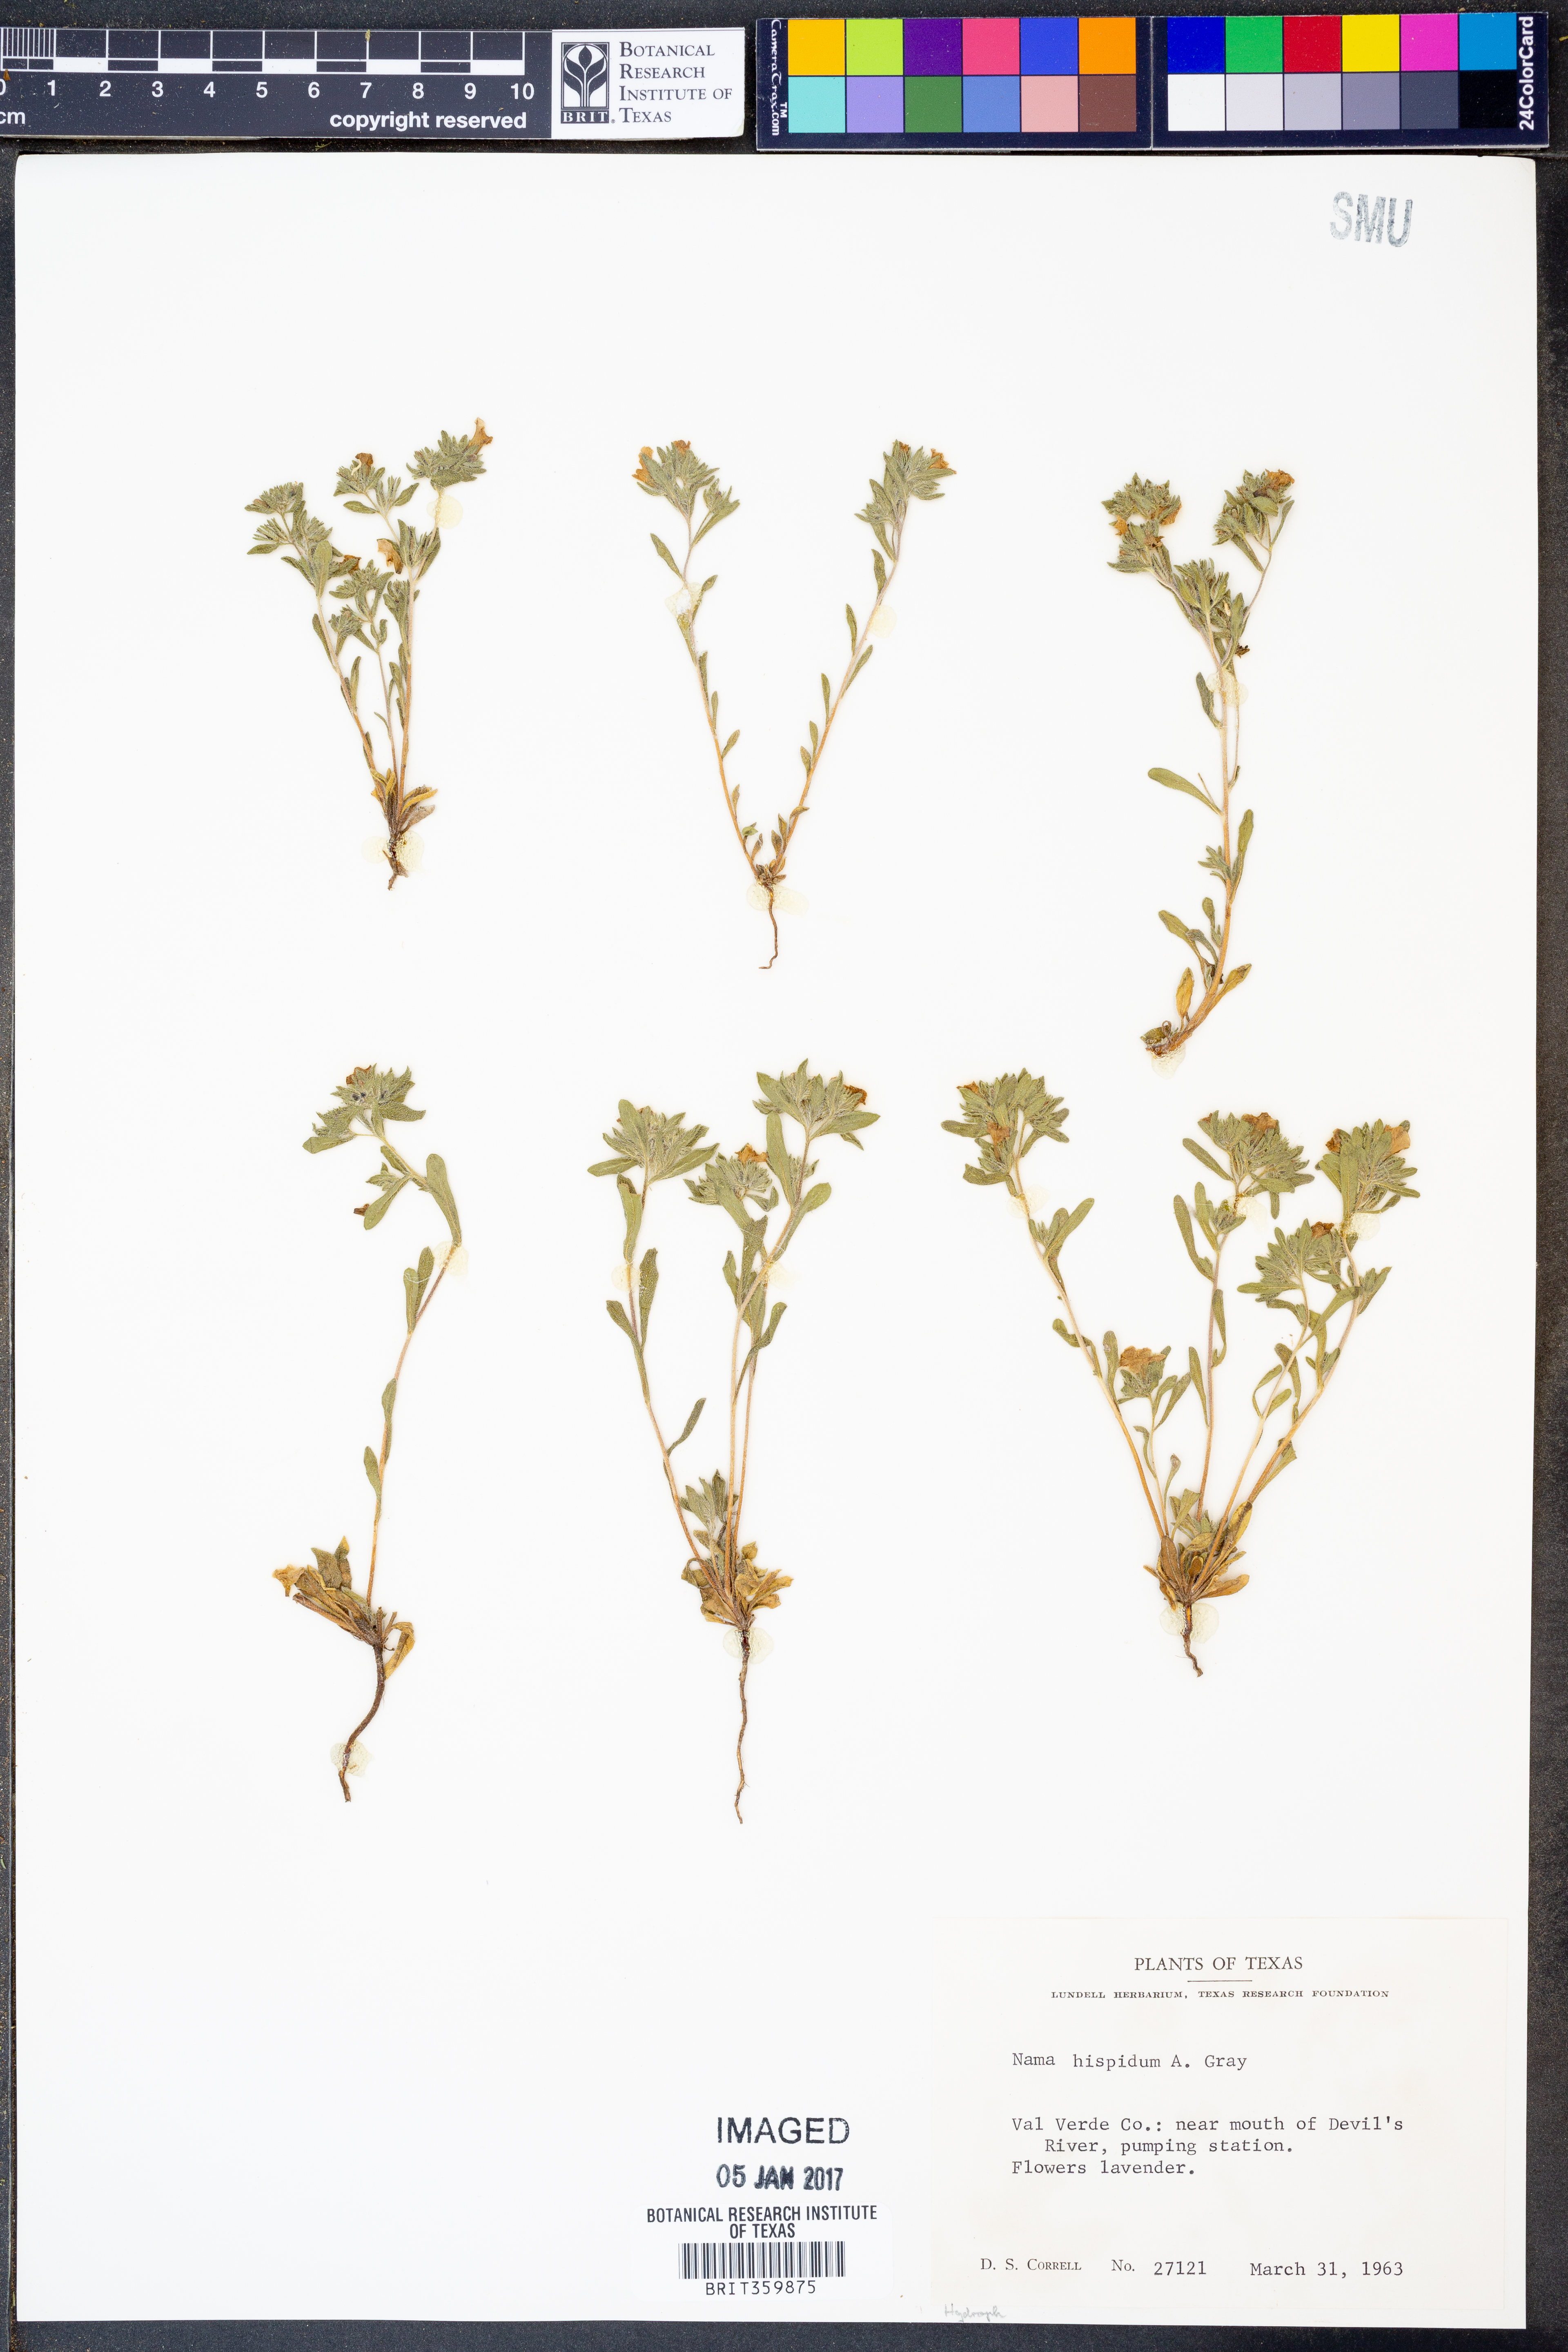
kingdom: Plantae
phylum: Tracheophyta
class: Magnoliopsida
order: Boraginales
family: Namaceae
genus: Nama
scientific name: Nama hispida
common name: Bristly nama
